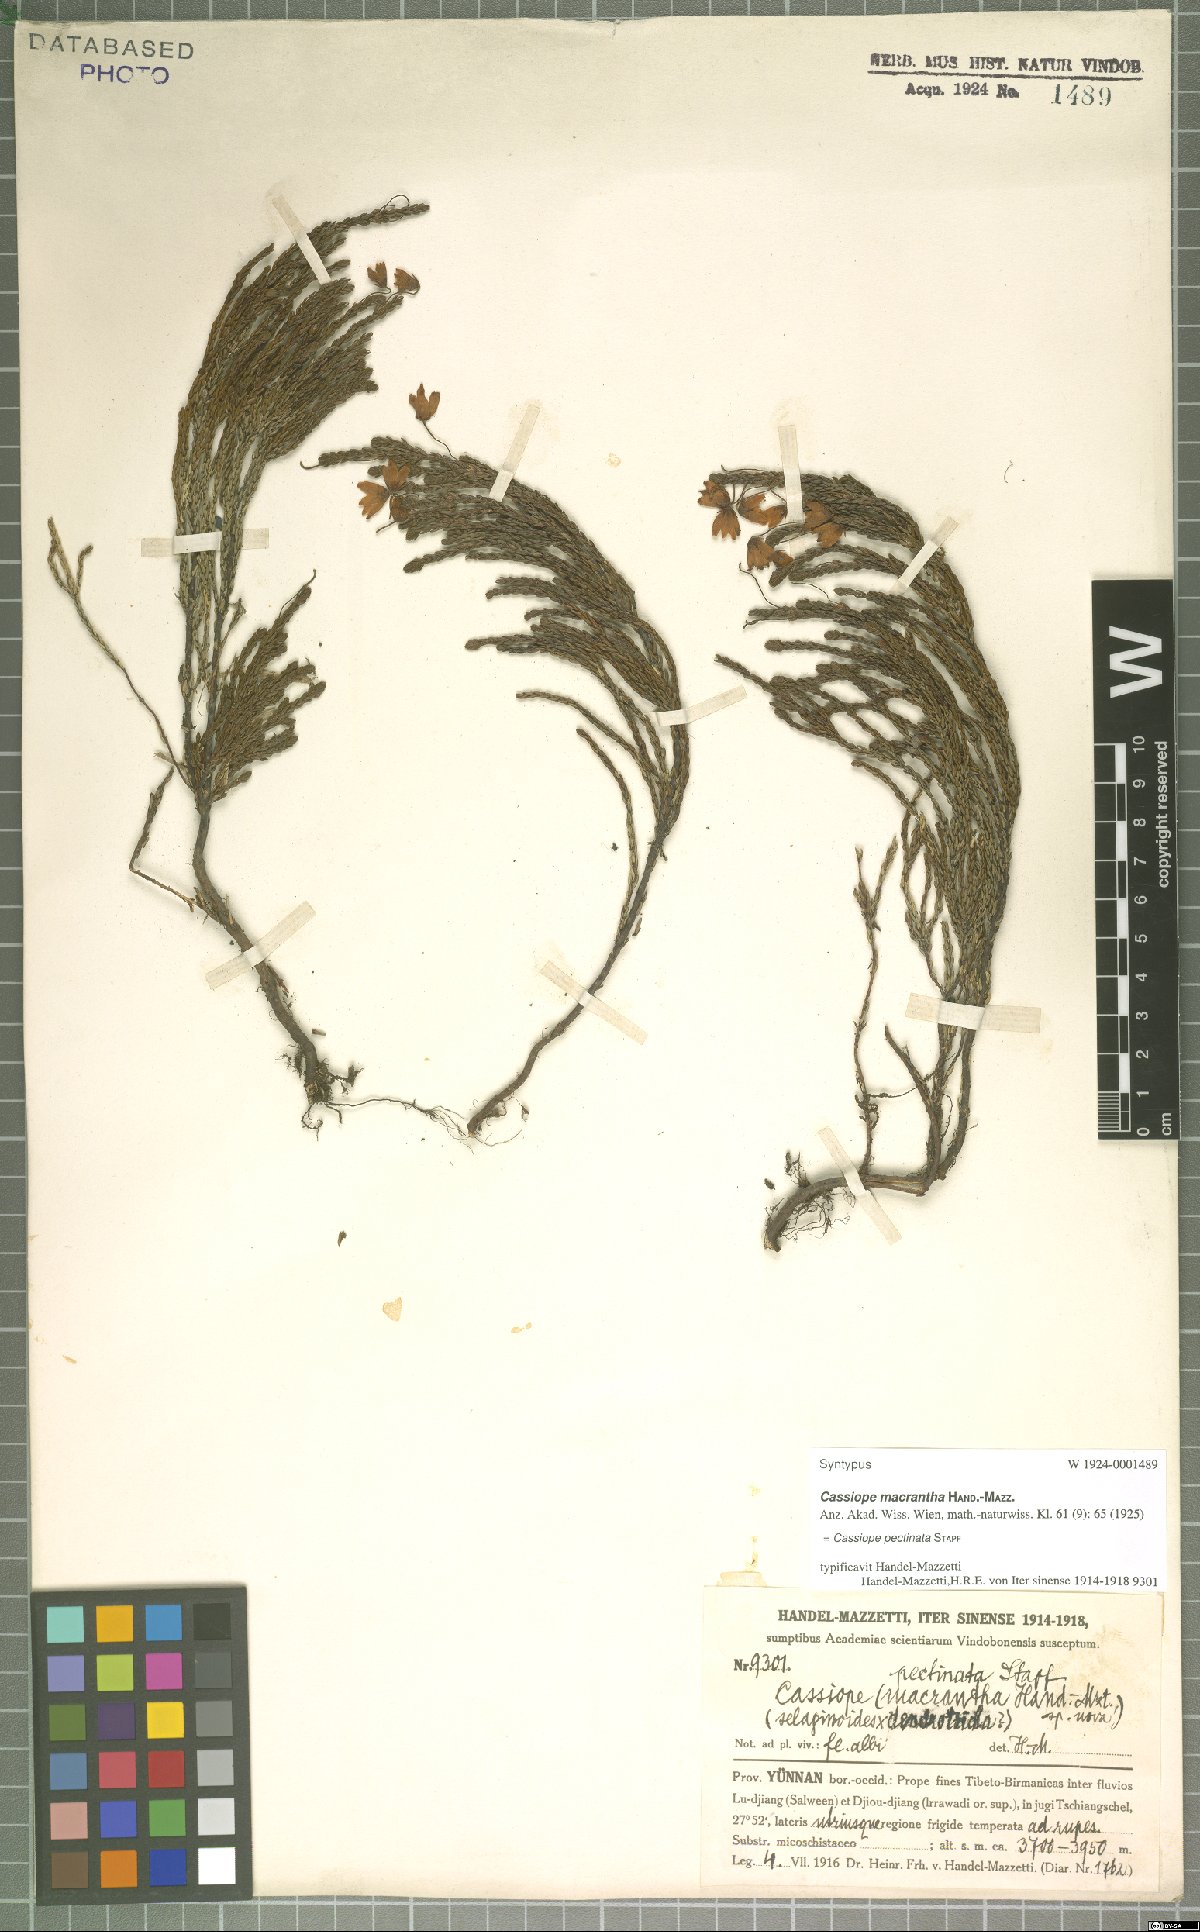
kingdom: Plantae
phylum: Tracheophyta
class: Magnoliopsida
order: Ericales
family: Ericaceae
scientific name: Ericaceae
